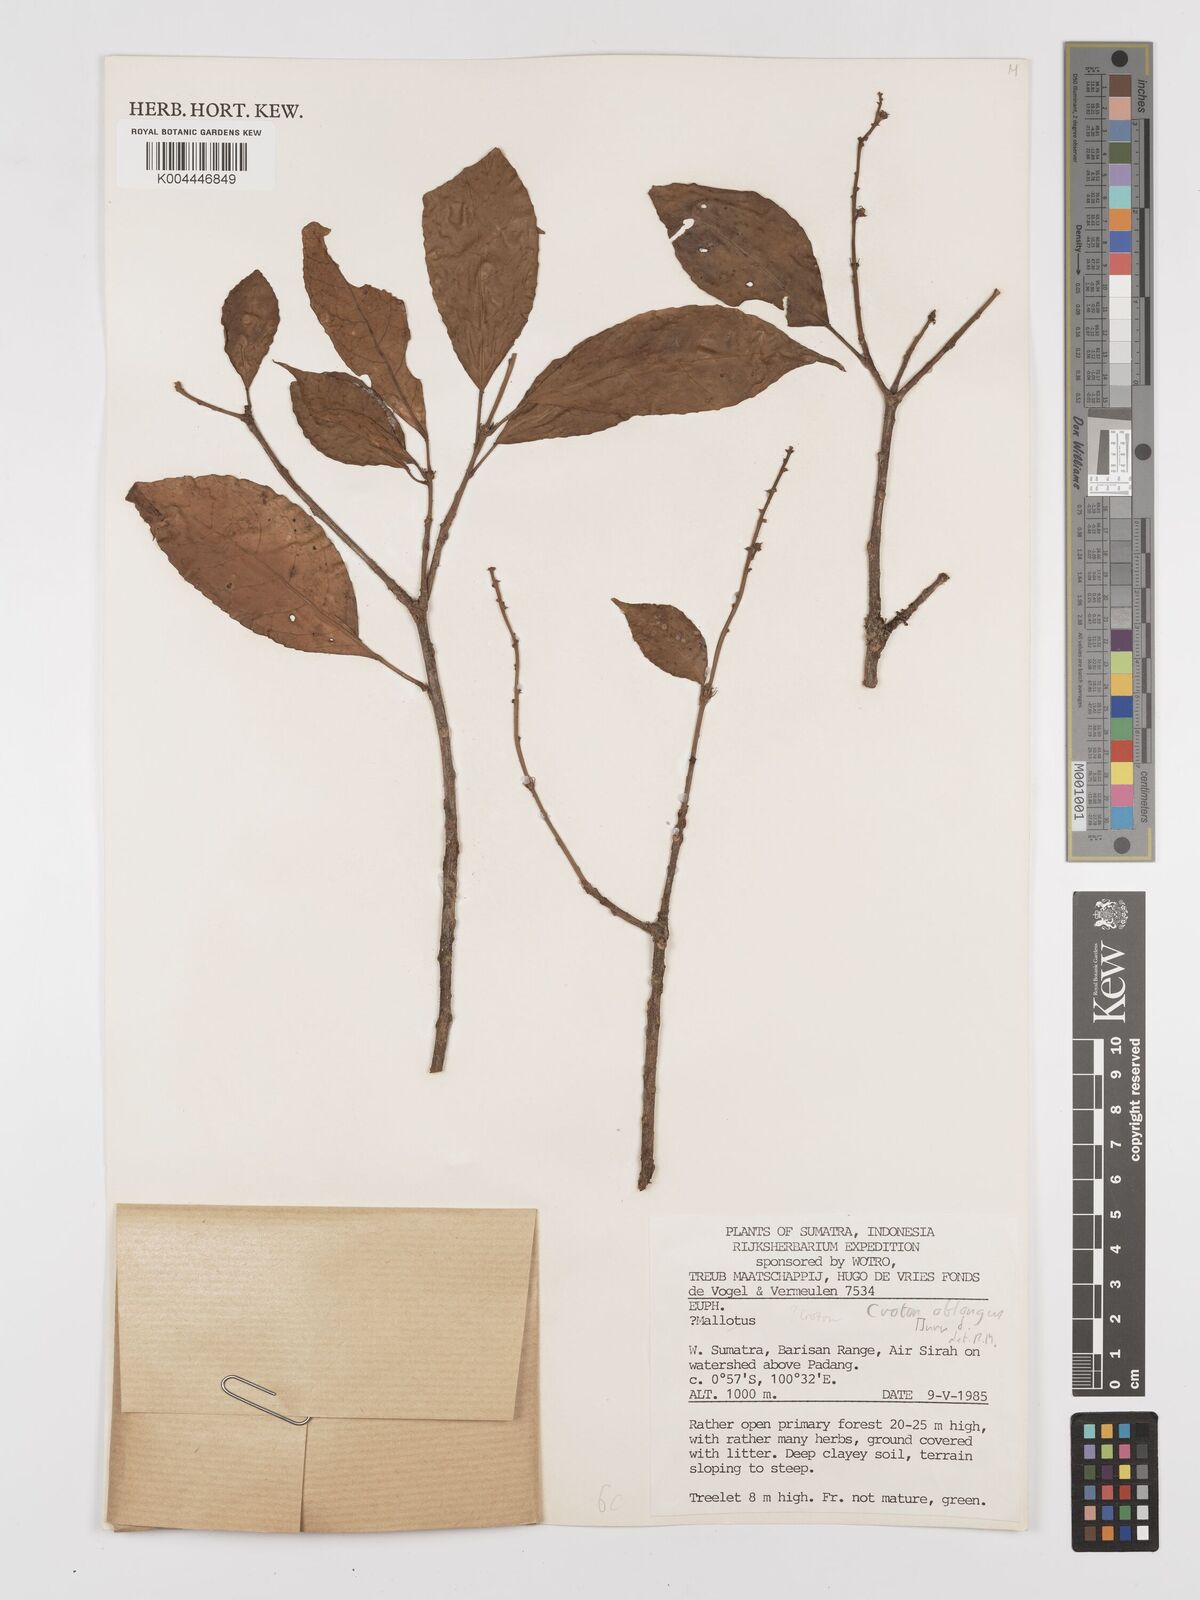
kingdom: Plantae
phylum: Tracheophyta
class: Magnoliopsida
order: Malpighiales
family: Euphorbiaceae
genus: Croton
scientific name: Croton oblongus
